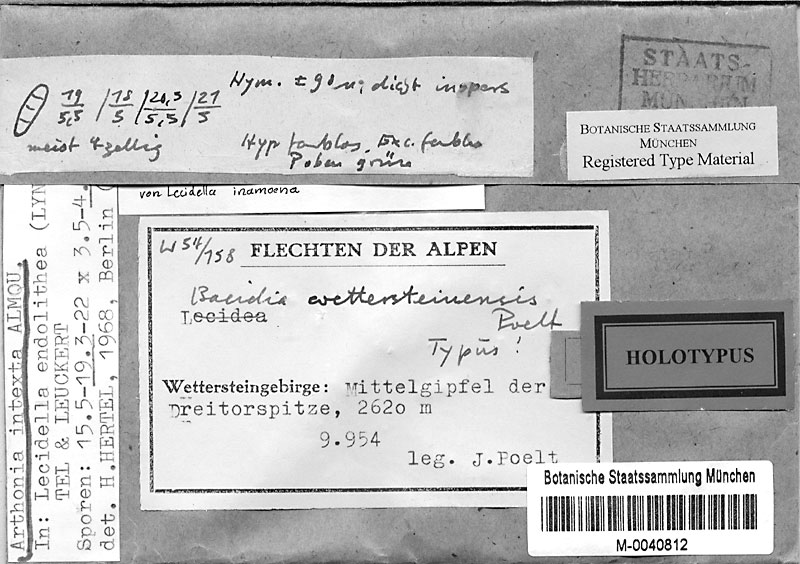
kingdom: Fungi
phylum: Ascomycota
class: Lecanoromycetes
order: Lecanorales
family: Lecanoraceae
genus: Lecidella
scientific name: Lecidella patavina
